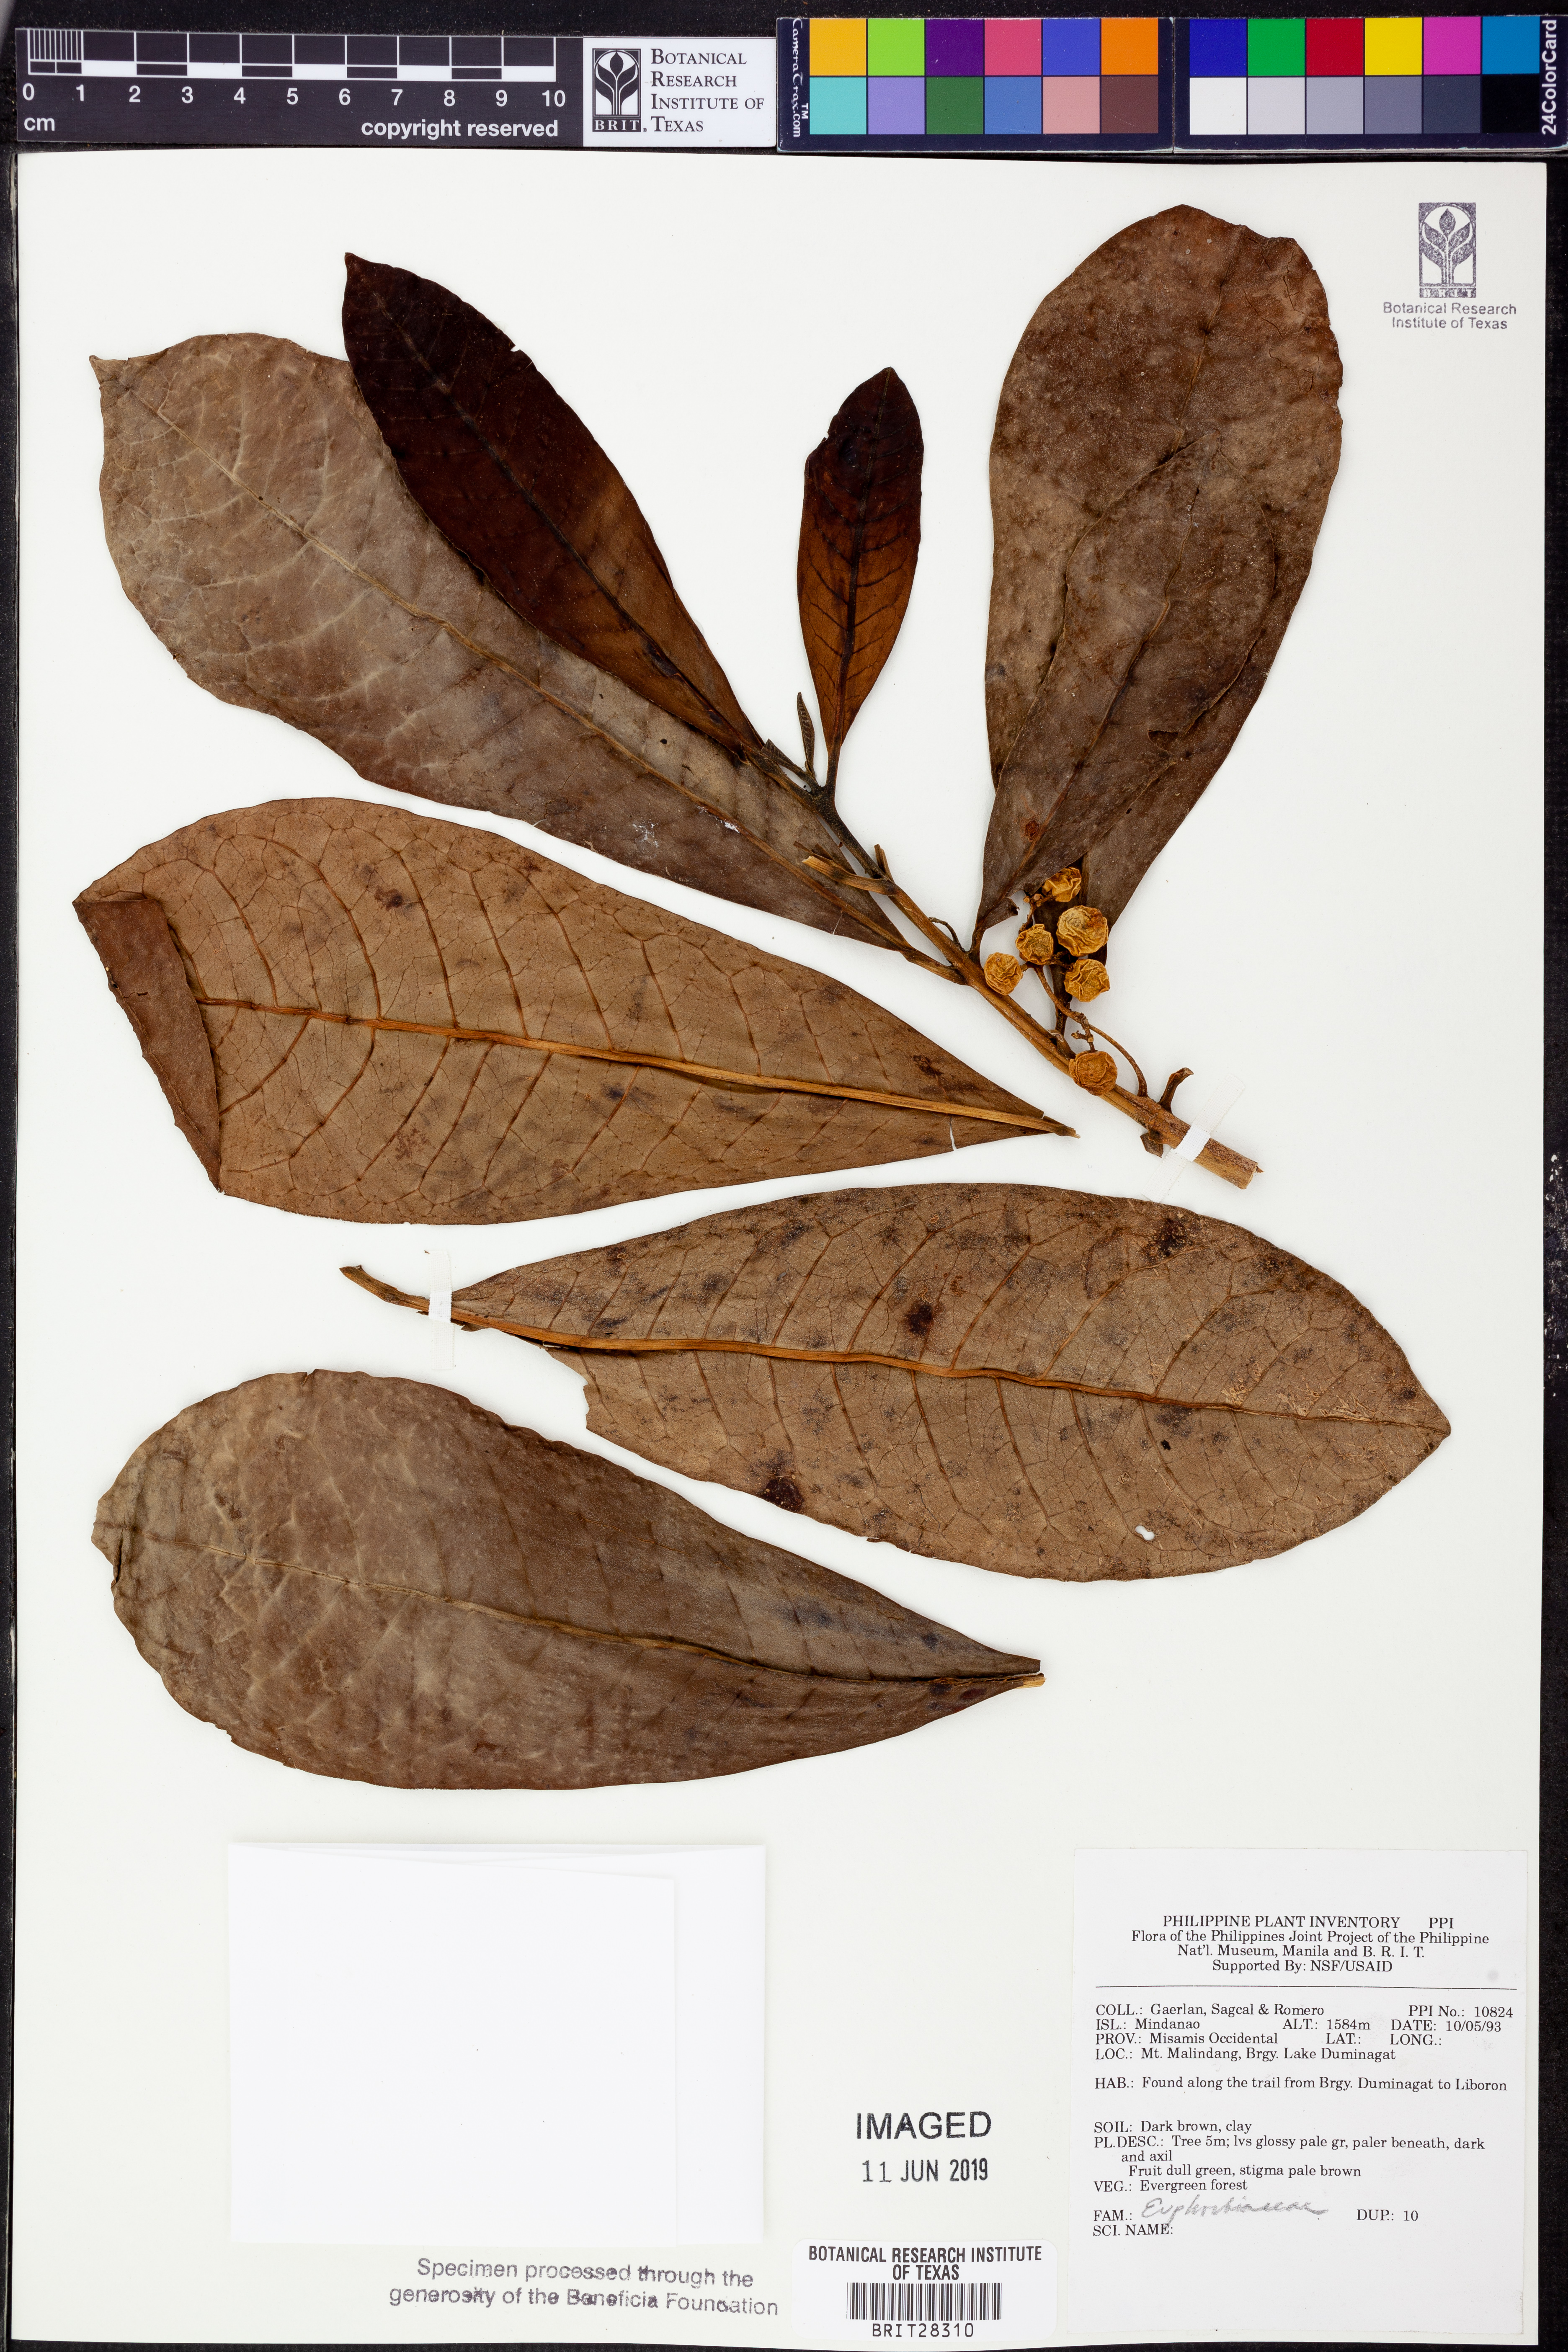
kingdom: Plantae
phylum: Tracheophyta
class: Magnoliopsida
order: Malpighiales
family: Euphorbiaceae
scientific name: Euphorbiaceae
